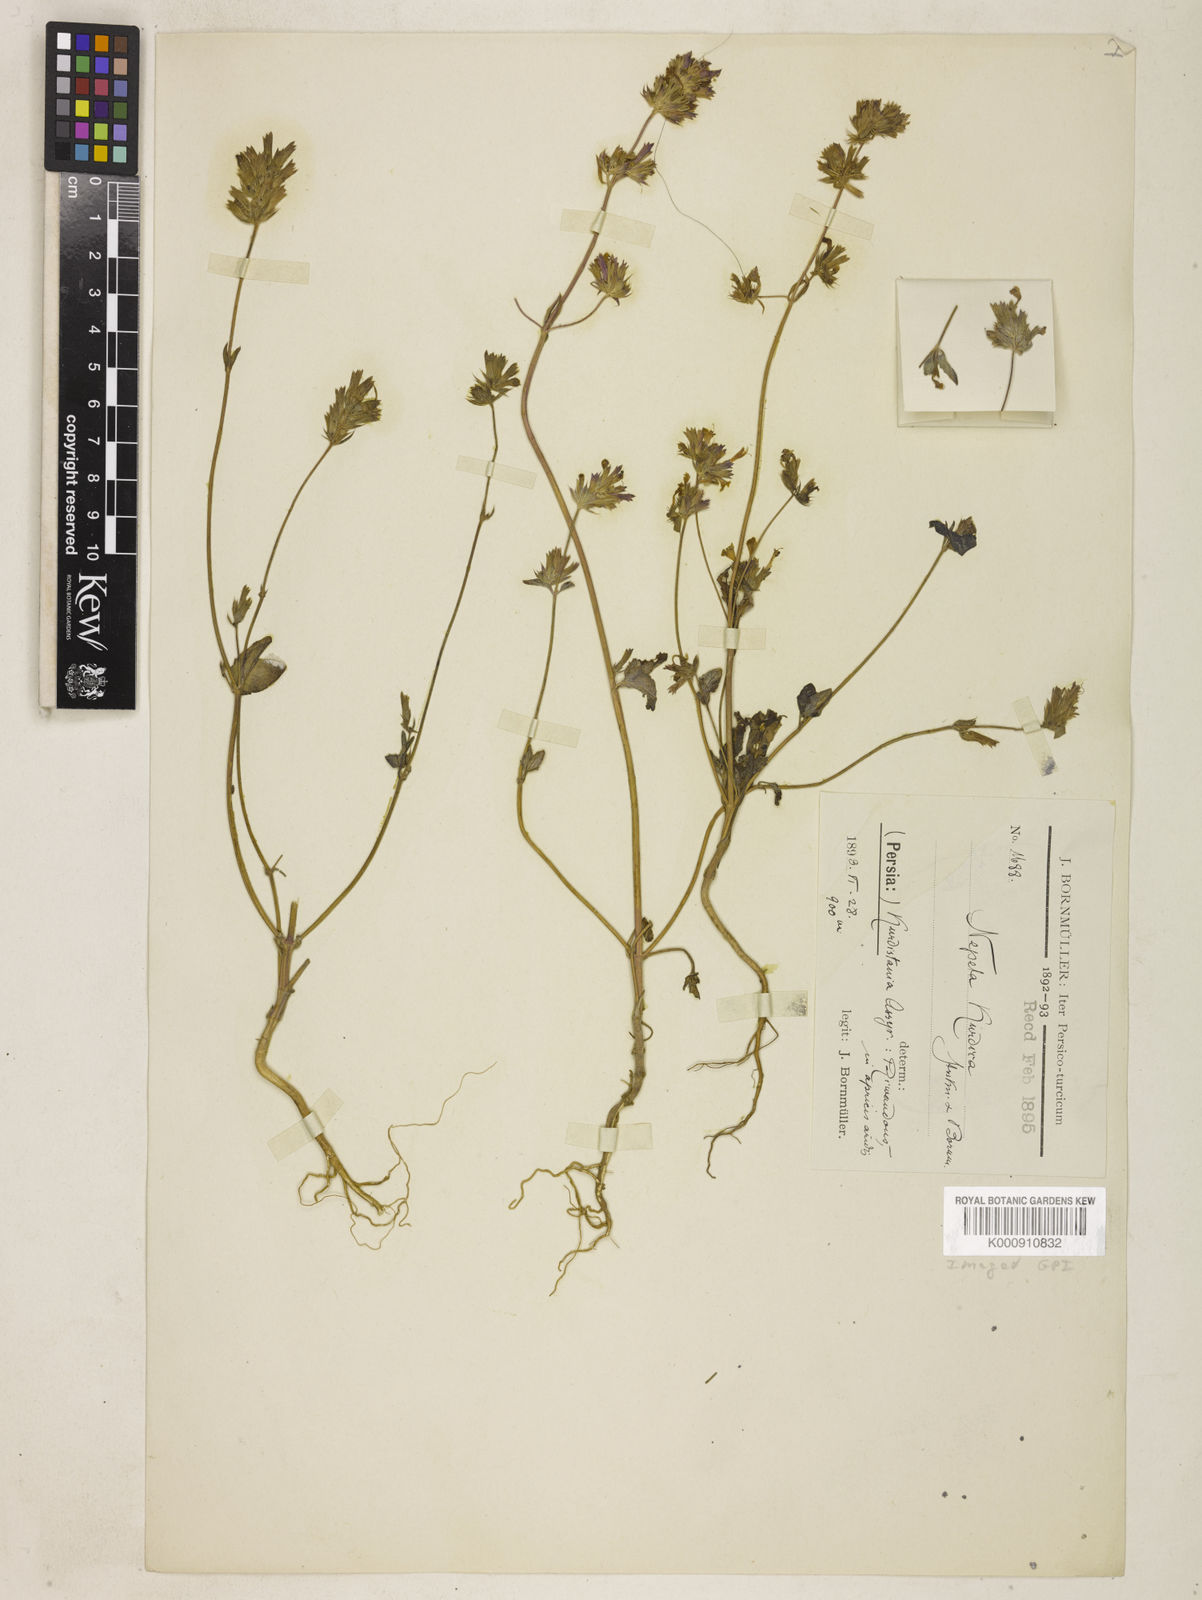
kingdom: Plantae
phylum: Tracheophyta
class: Magnoliopsida
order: Lamiales
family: Lamiaceae
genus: Nepeta
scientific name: Nepeta kurdica
